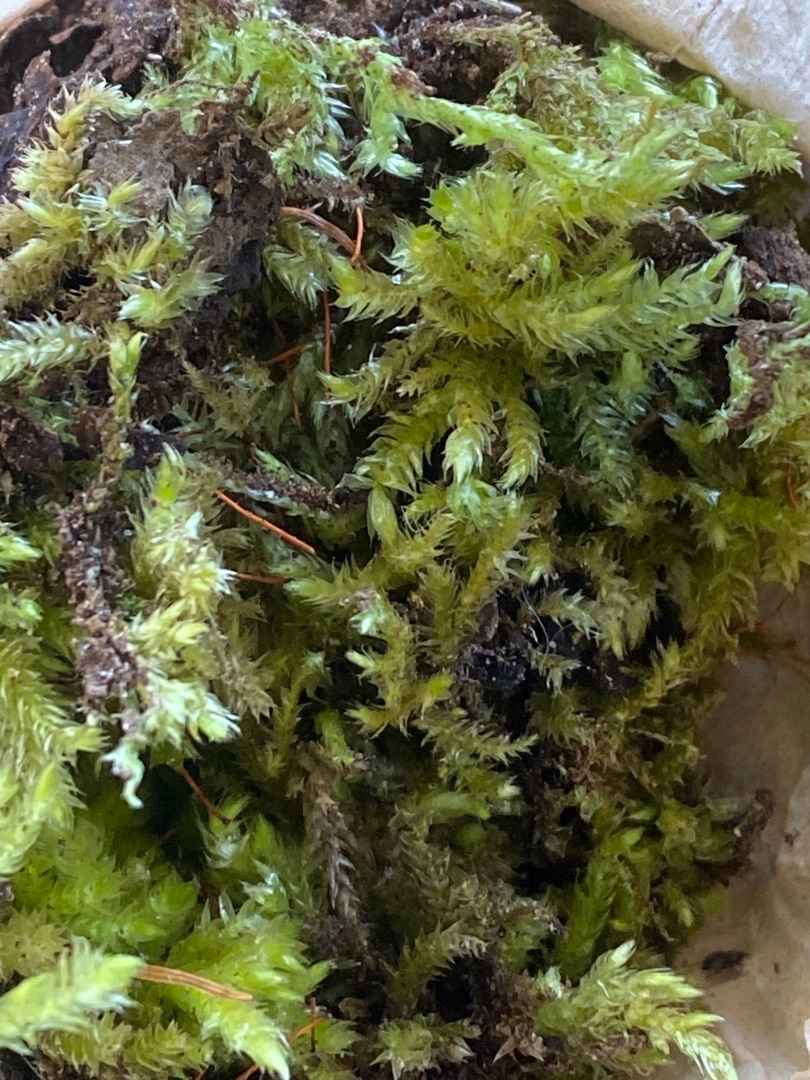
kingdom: Plantae
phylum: Bryophyta
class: Bryopsida
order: Hypnales
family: Brachytheciaceae
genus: Brachythecium
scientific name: Brachythecium rutabulum
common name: Almindelig kortkapsel
